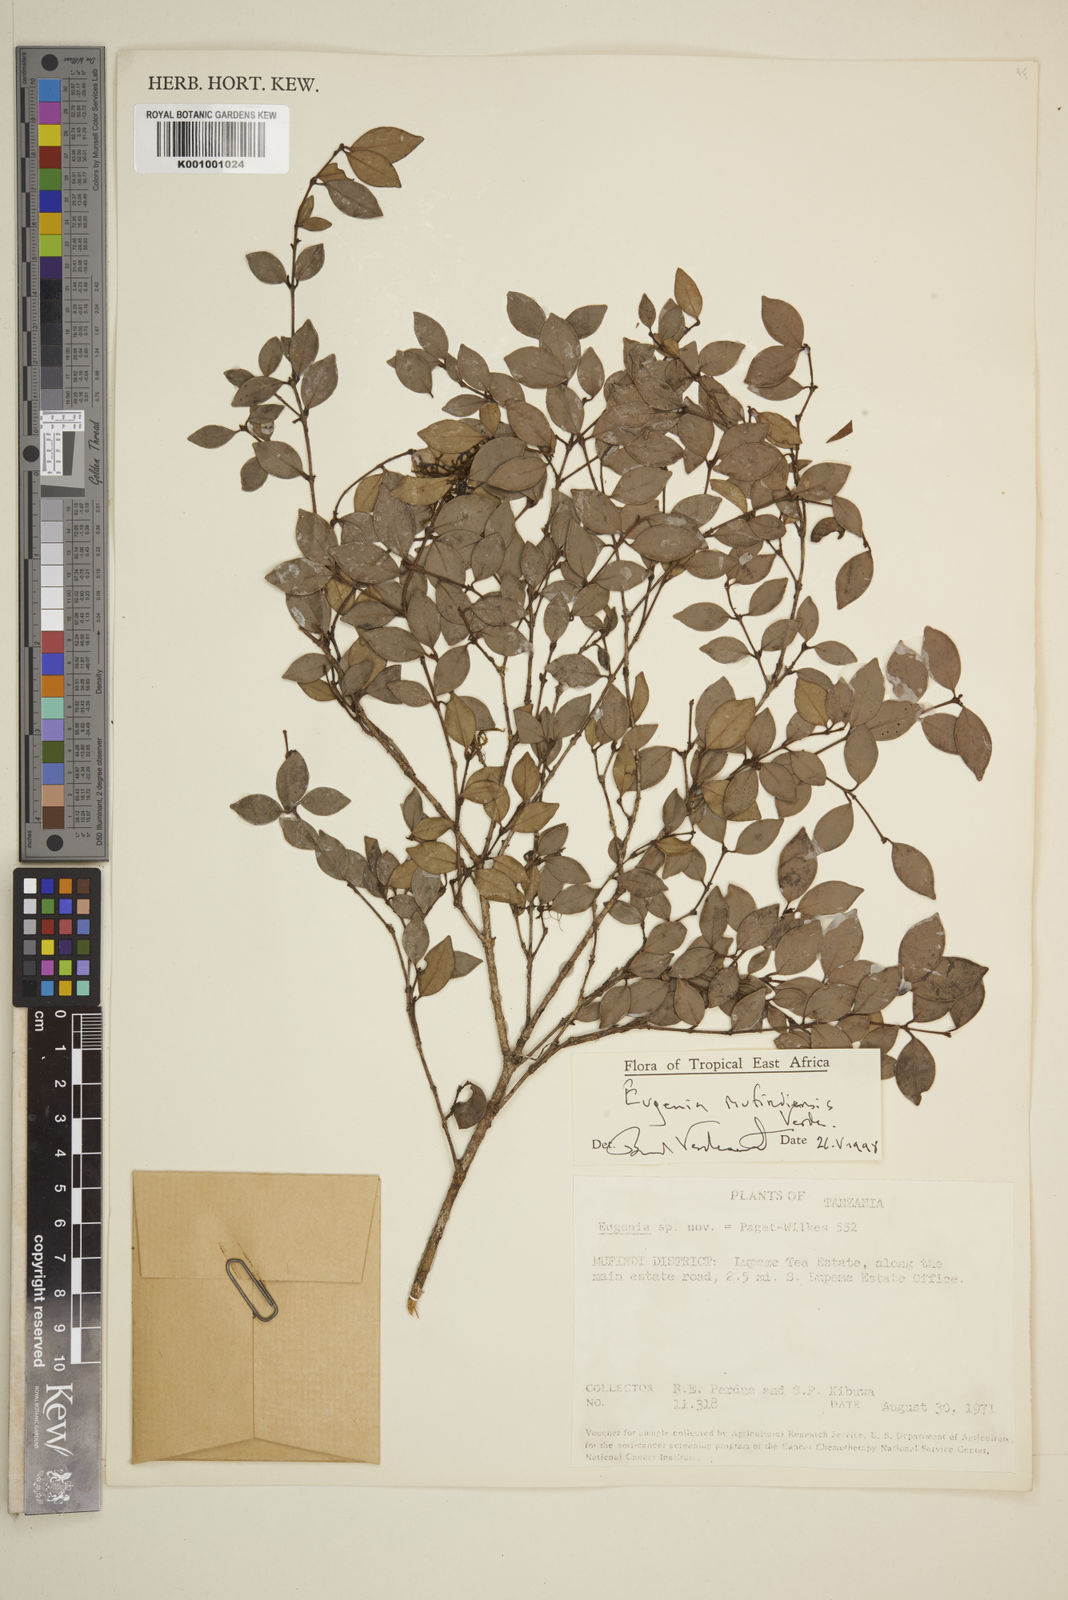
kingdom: Plantae
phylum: Tracheophyta
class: Magnoliopsida
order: Myrtales
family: Myrtaceae
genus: Eugenia
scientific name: Eugenia mufindiensis
